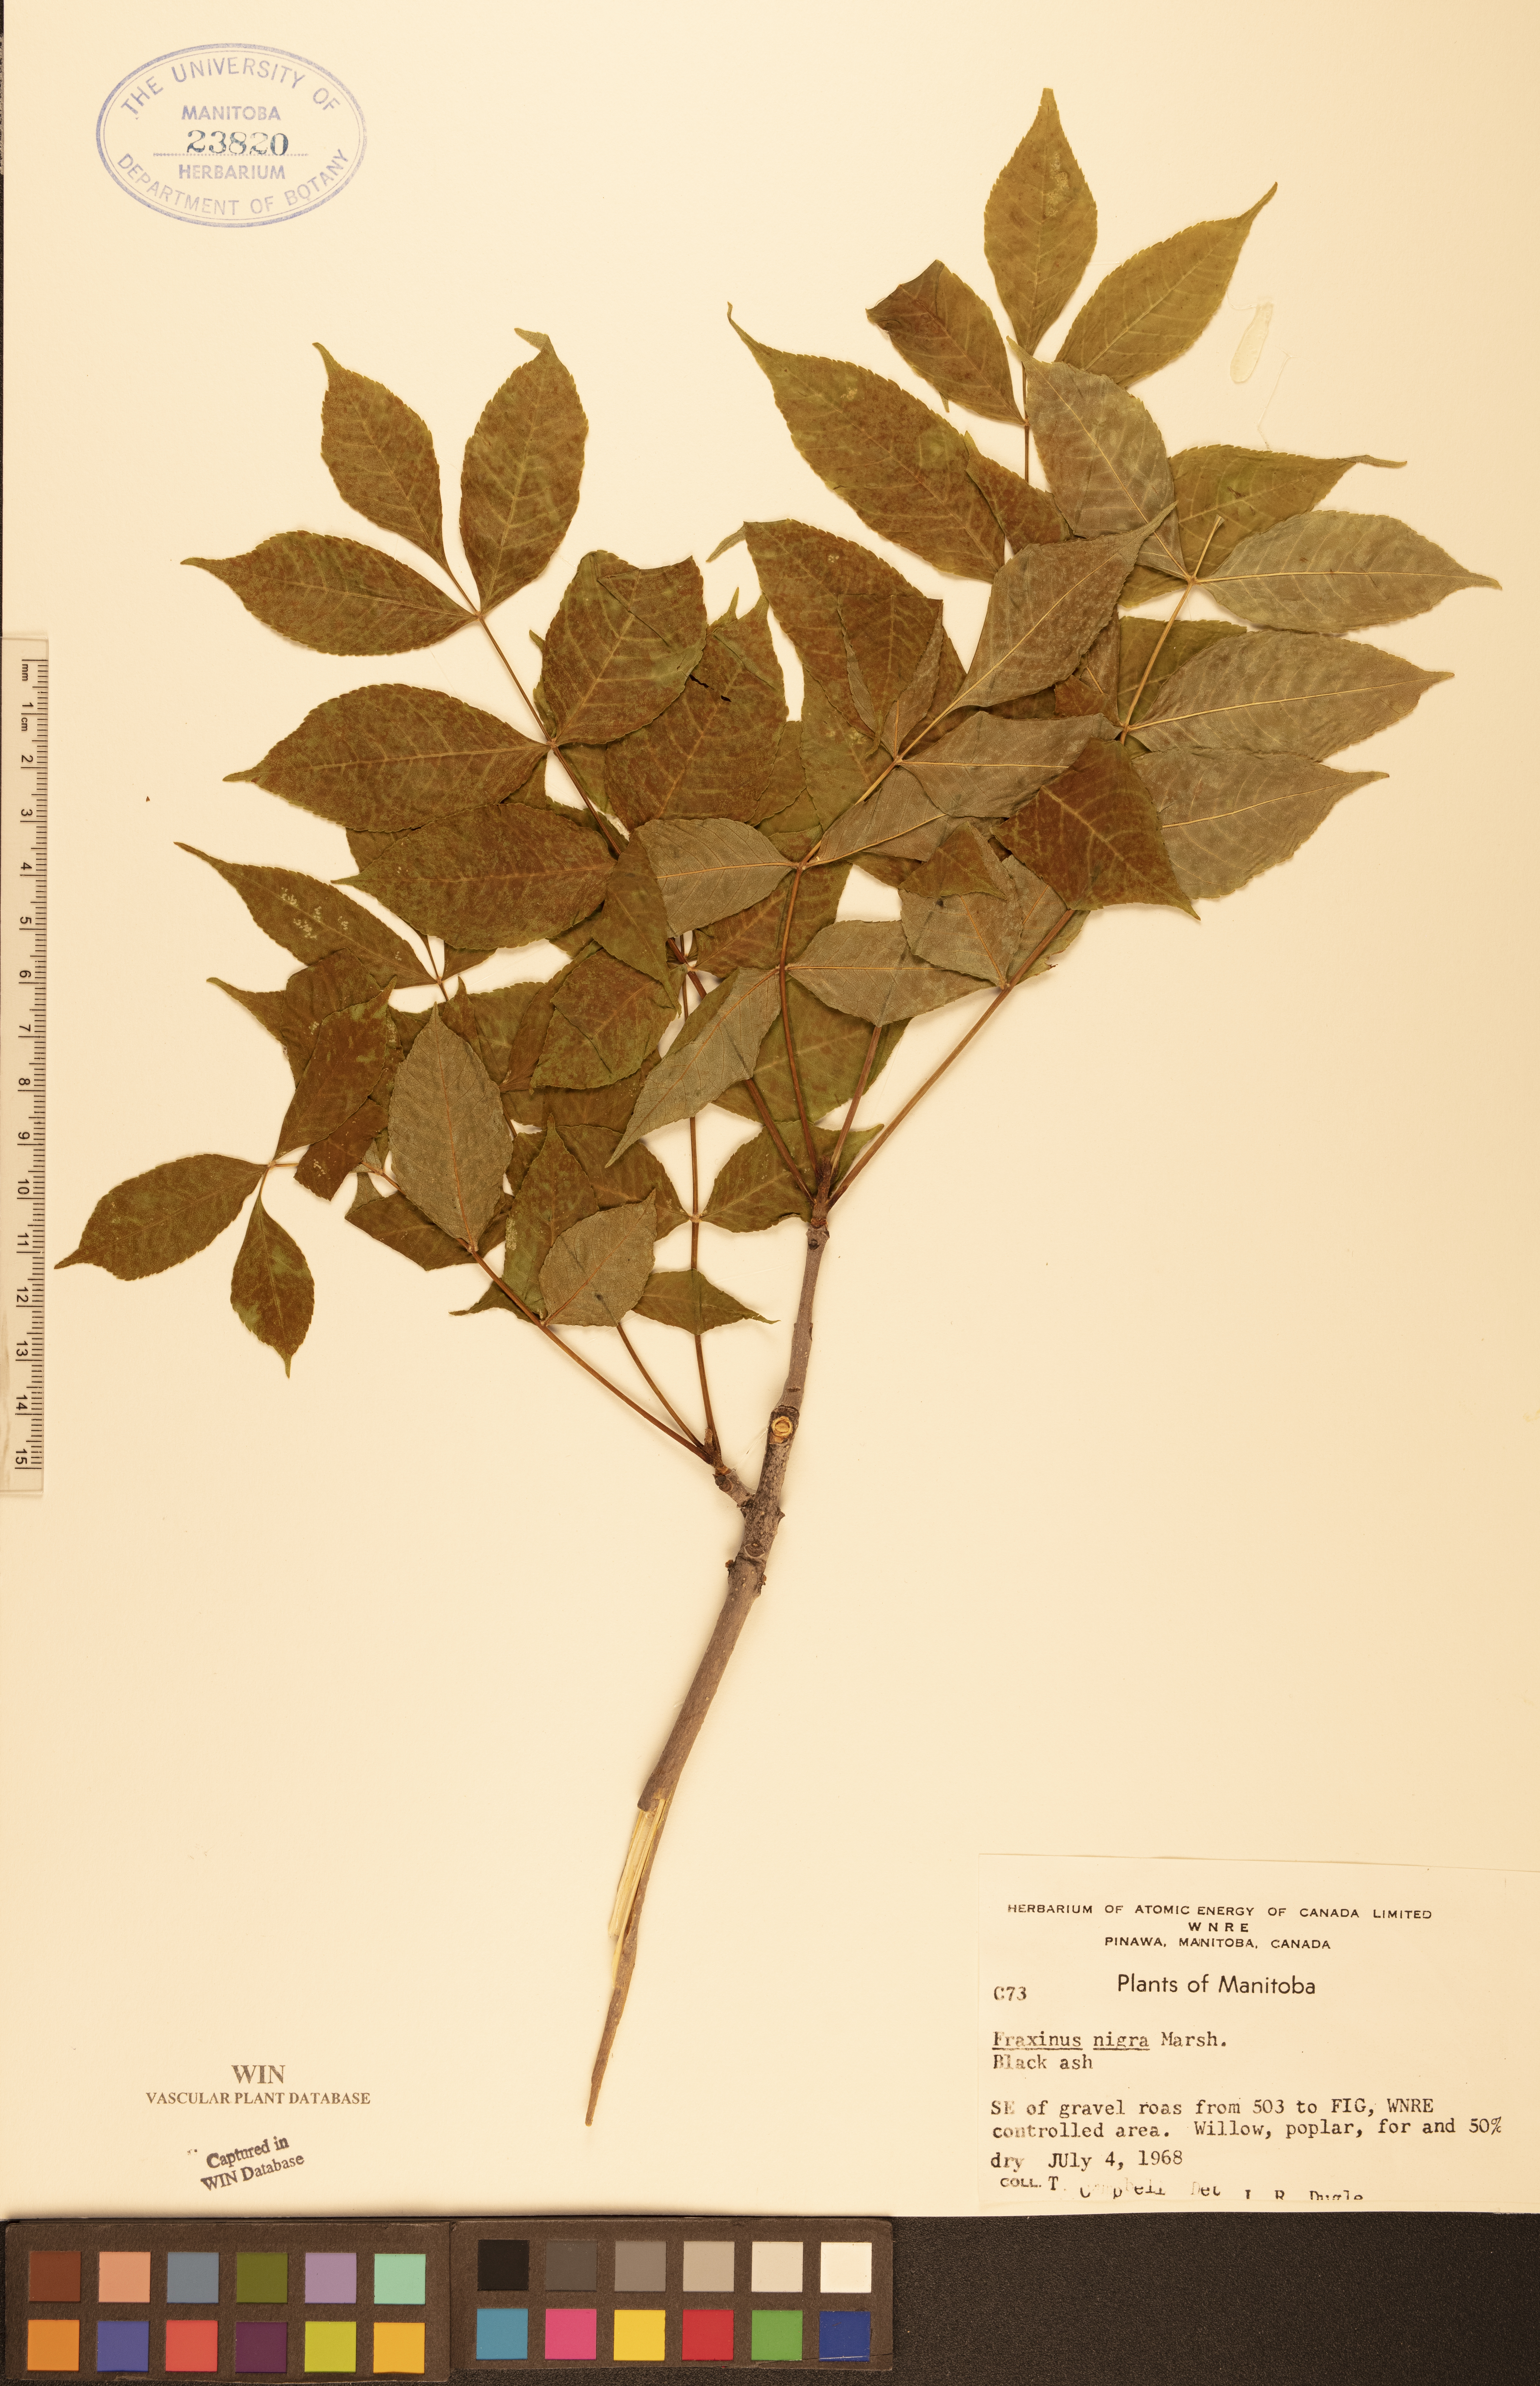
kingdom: Plantae
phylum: Tracheophyta
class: Magnoliopsida
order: Lamiales
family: Oleaceae
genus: Fraxinus
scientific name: Fraxinus nigra
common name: Black ash
